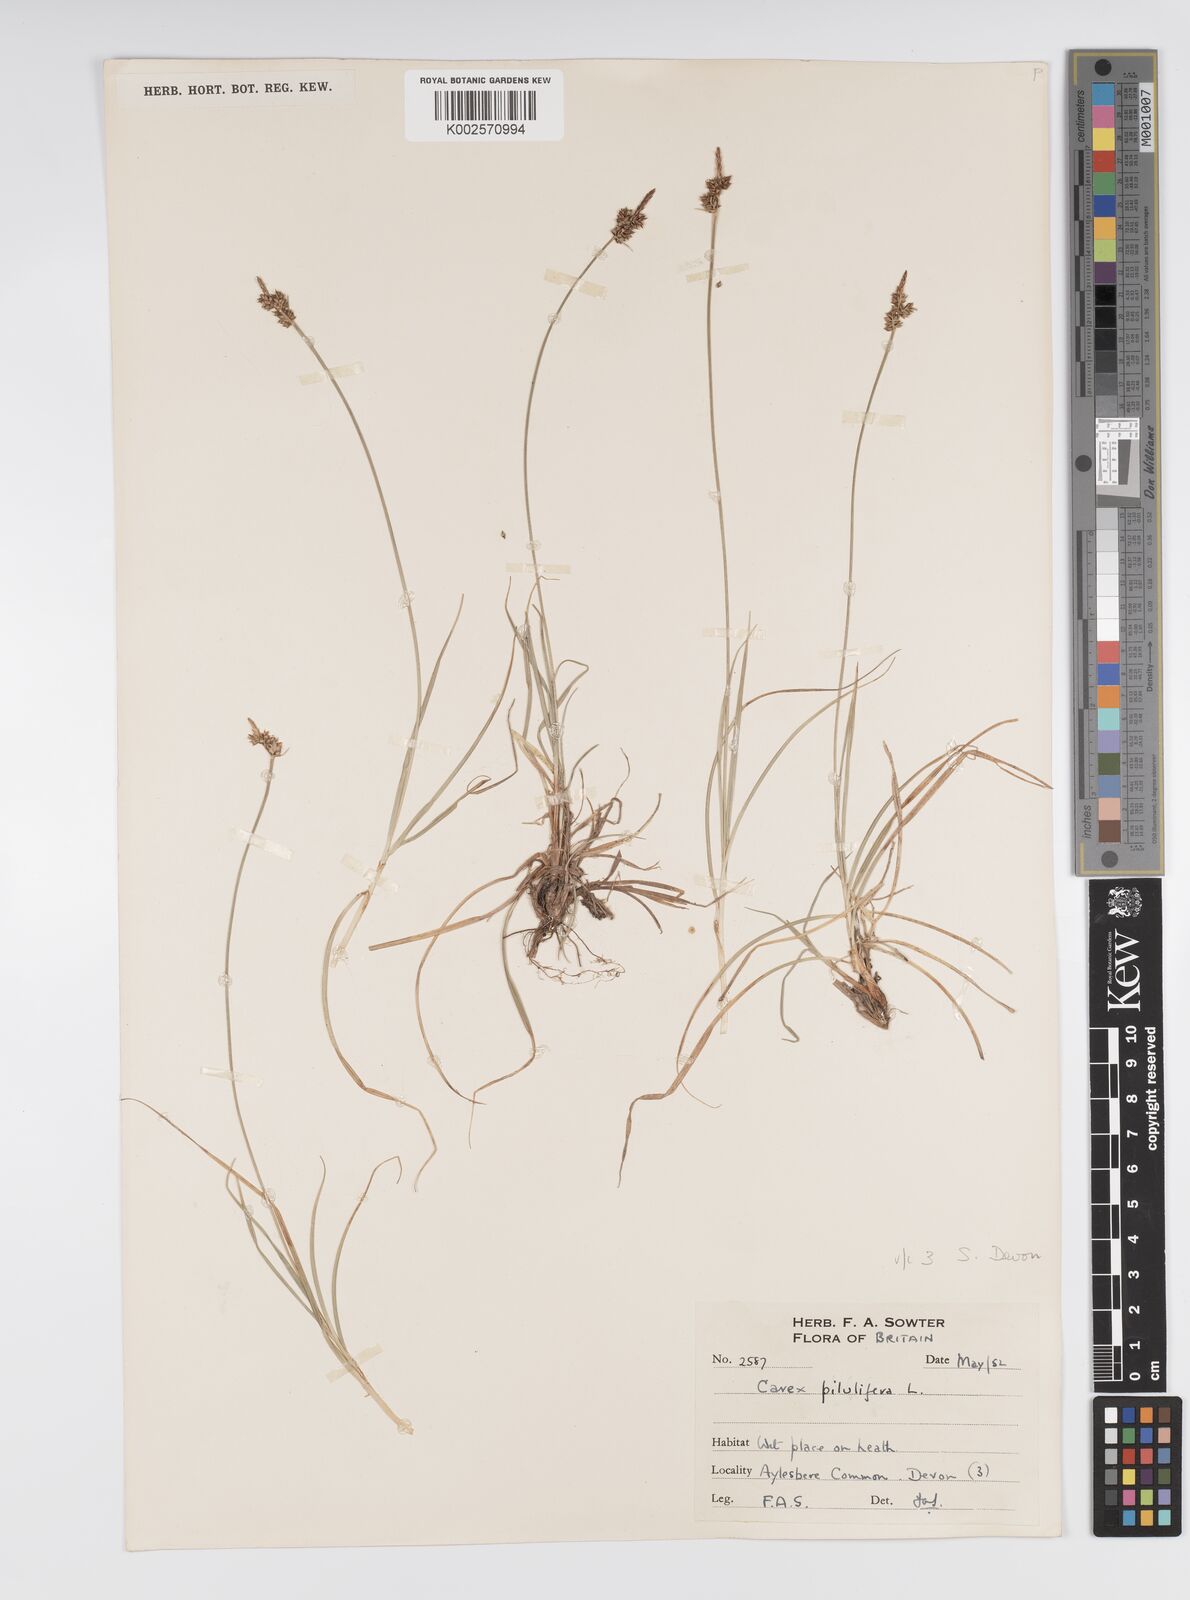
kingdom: Plantae
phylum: Tracheophyta
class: Liliopsida
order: Poales
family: Cyperaceae
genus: Carex
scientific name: Carex praecox
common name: Early sedge
